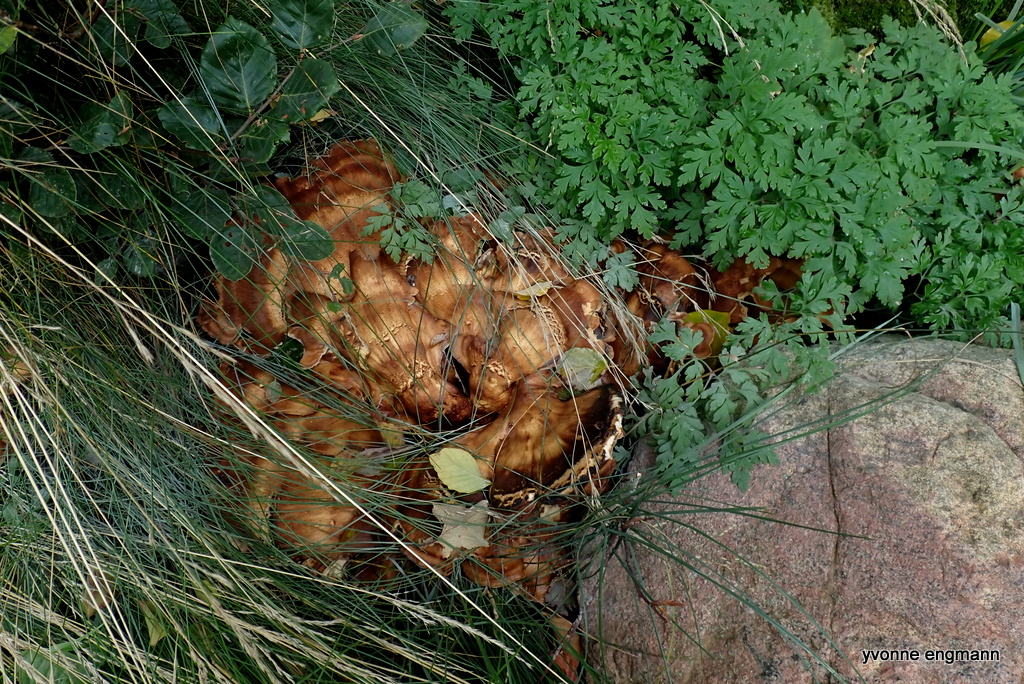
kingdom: Fungi
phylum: Basidiomycota
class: Agaricomycetes
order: Polyporales
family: Meripilaceae
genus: Meripilus
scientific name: Meripilus giganteus
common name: kæmpeporesvamp
